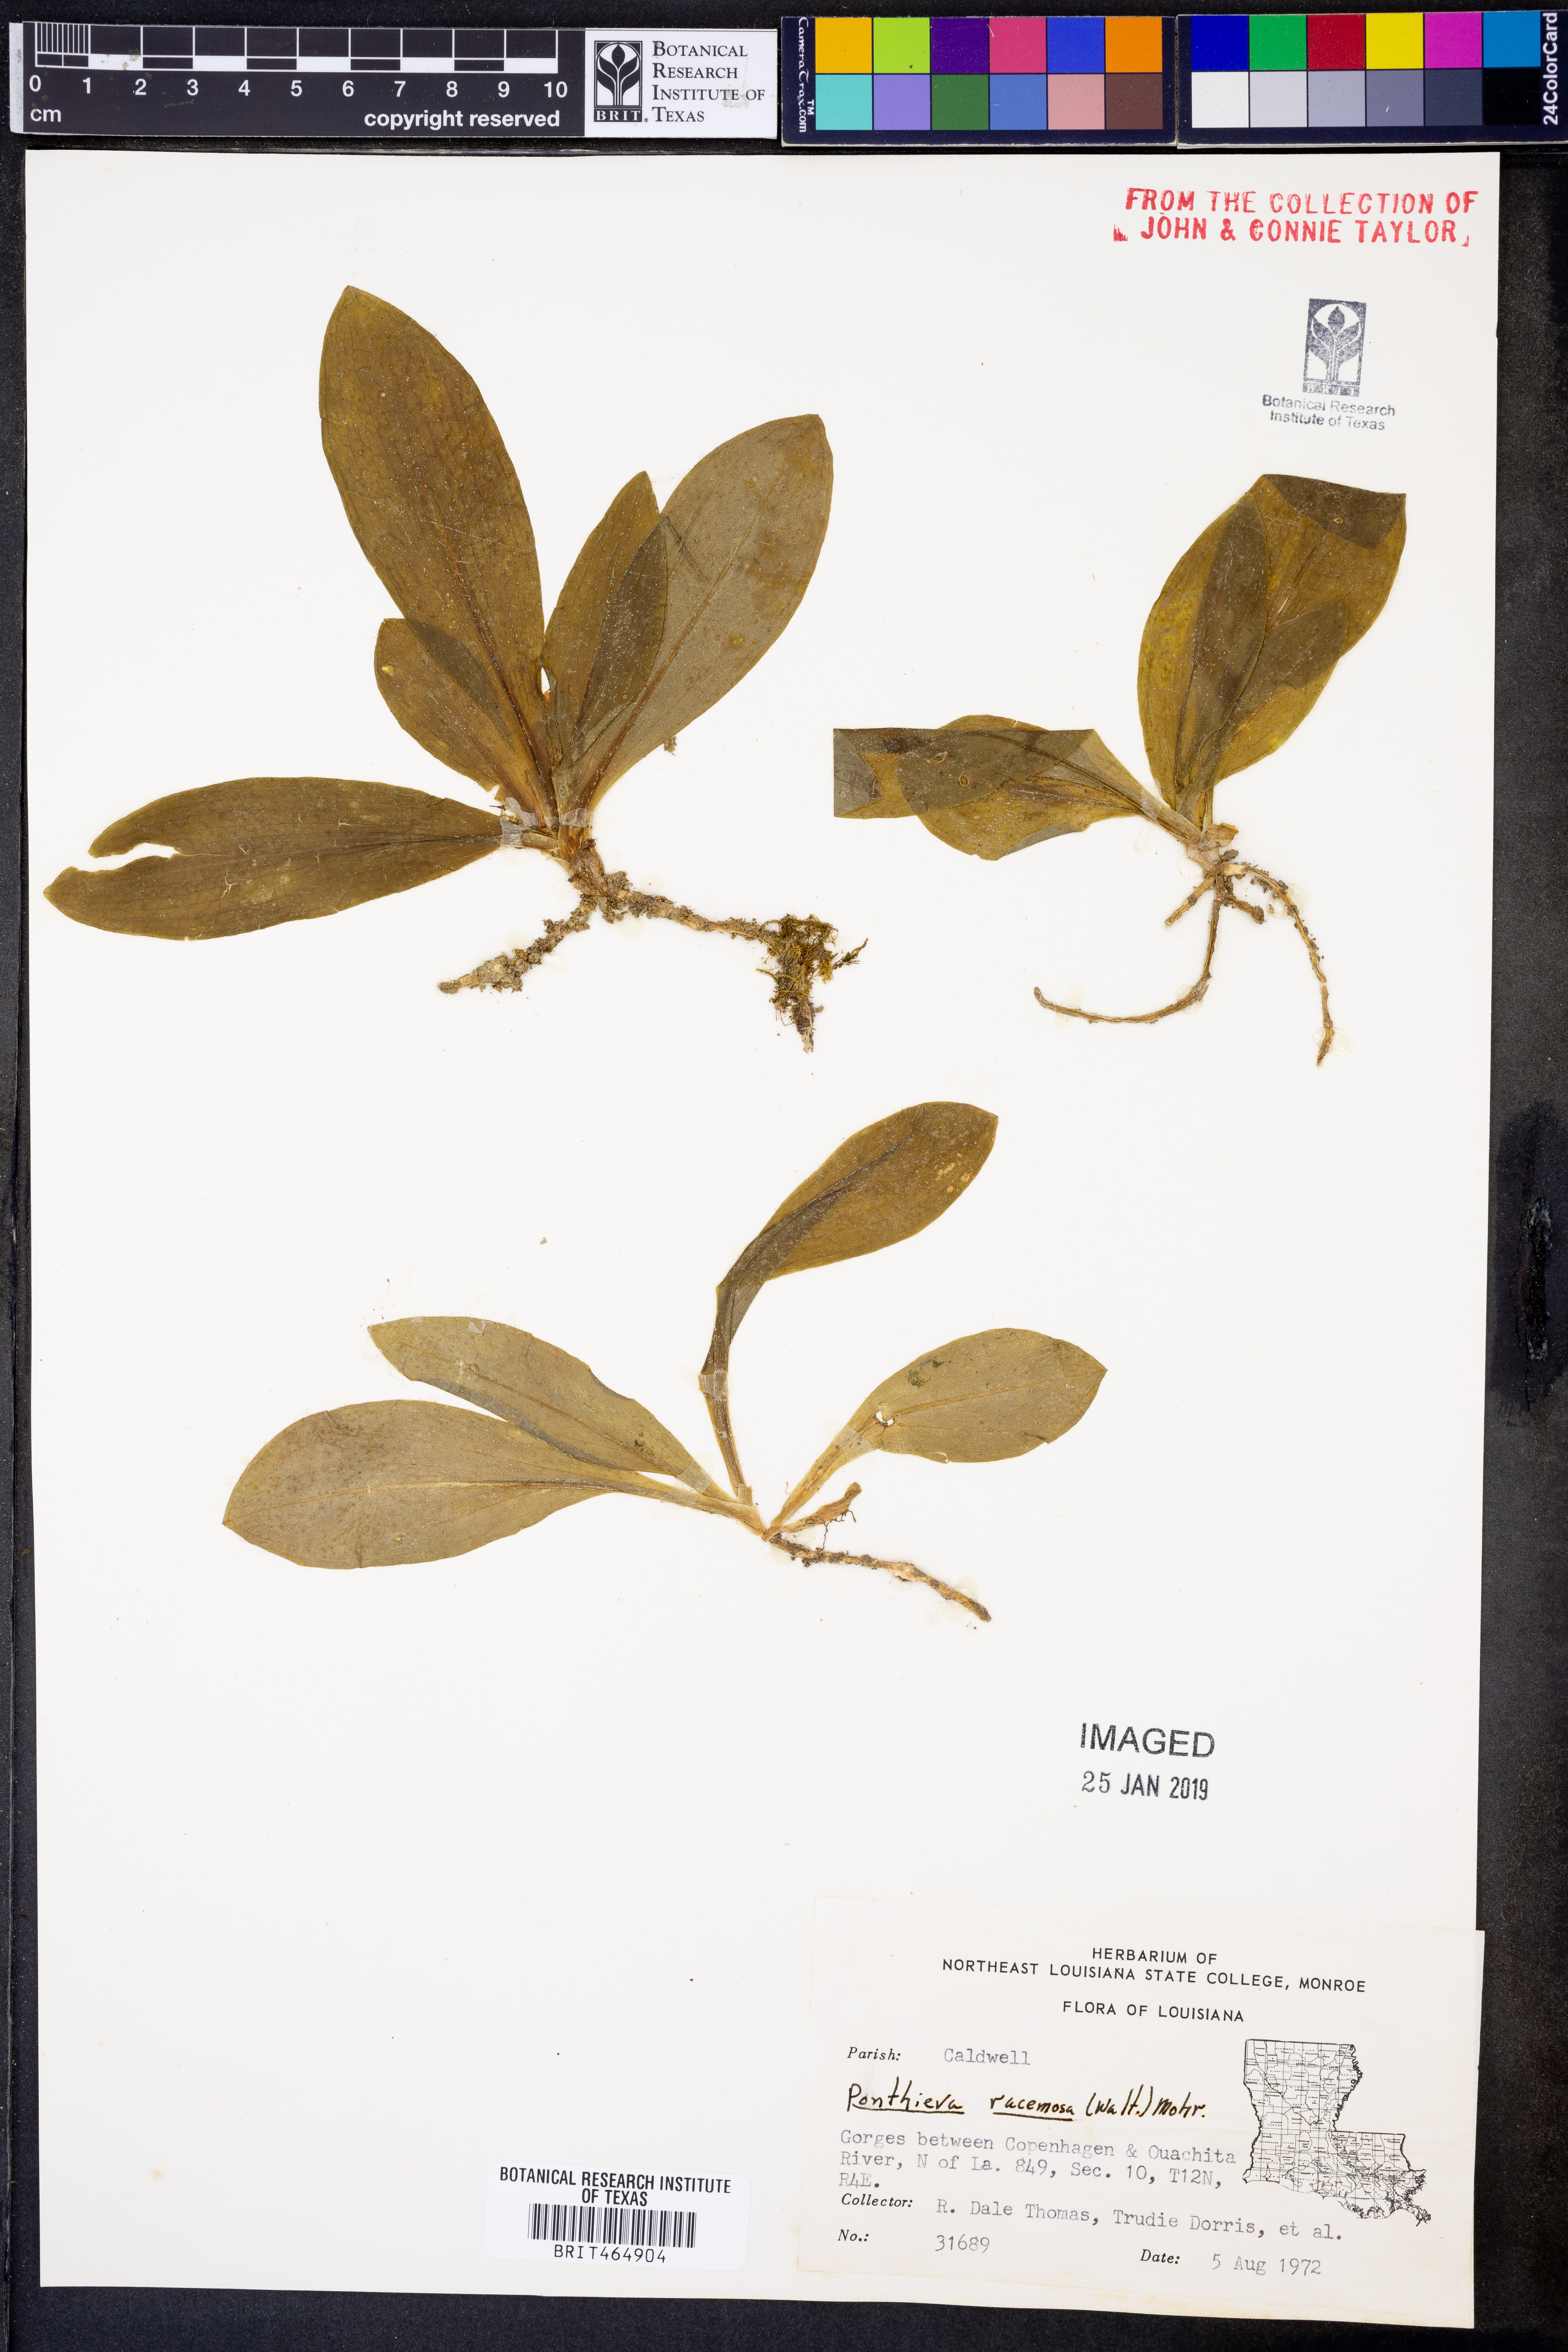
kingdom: Plantae
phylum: Tracheophyta
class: Liliopsida
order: Asparagales
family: Orchidaceae
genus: Ponthieva
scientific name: Ponthieva racemosa
